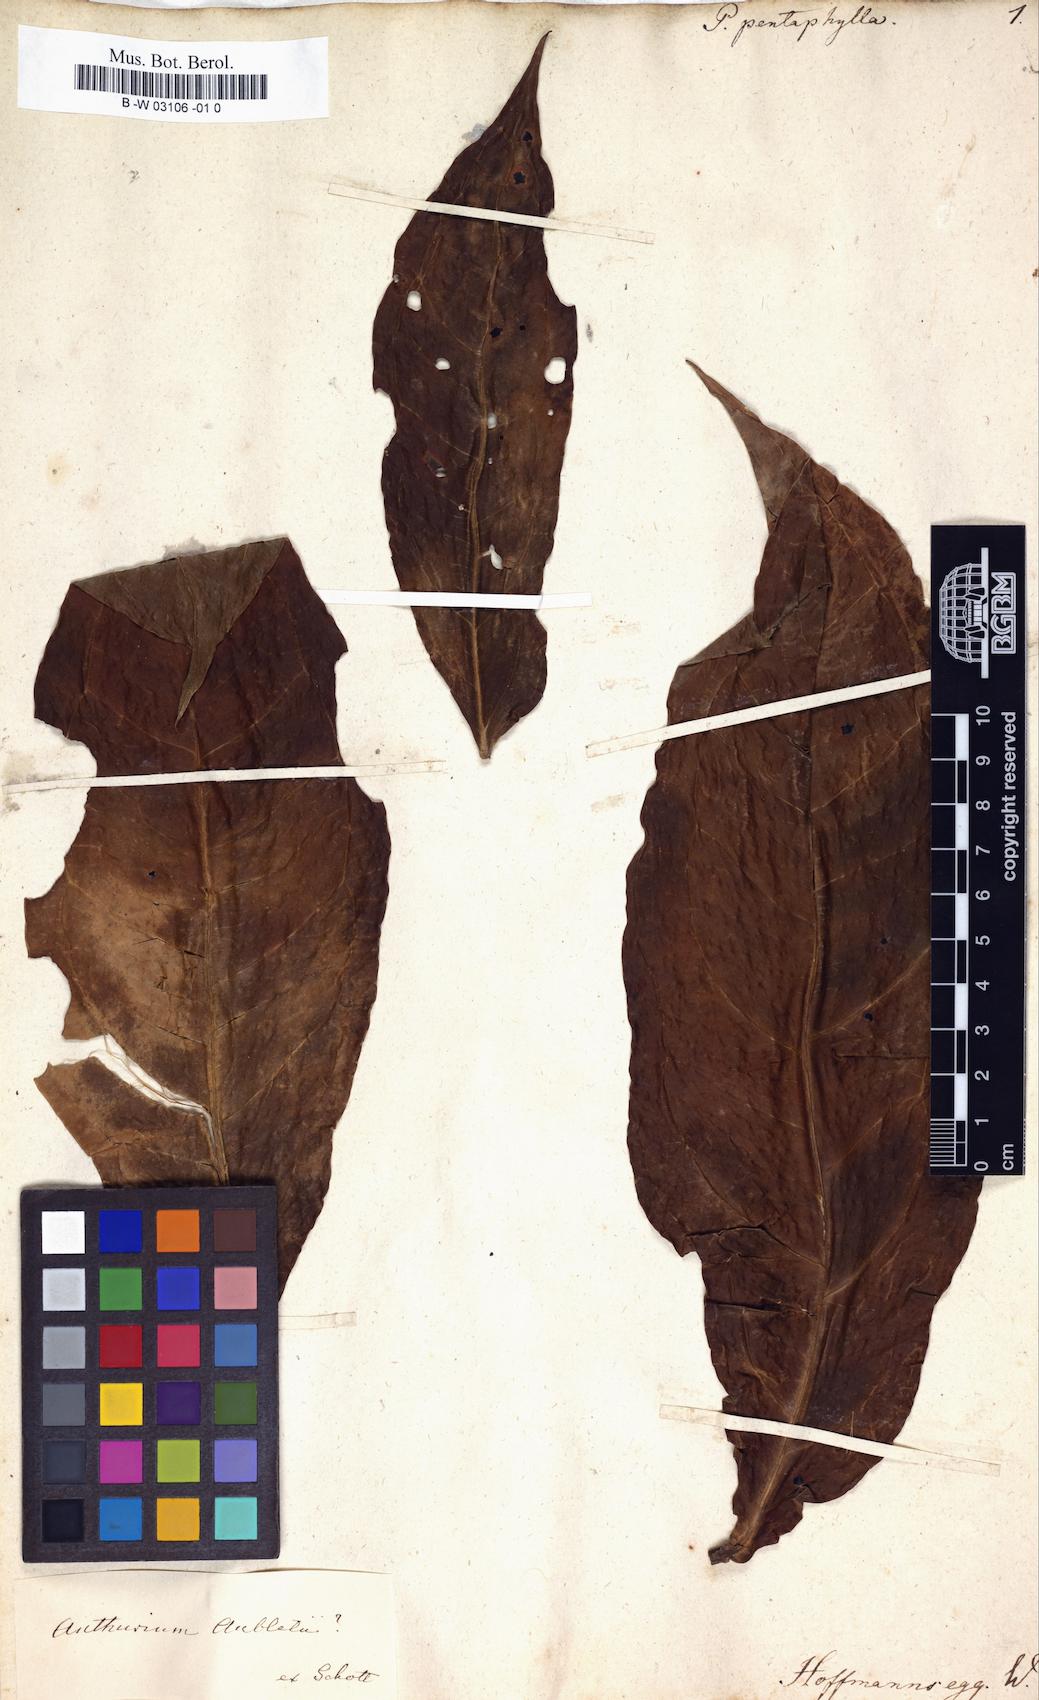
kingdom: Plantae
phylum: Tracheophyta
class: Liliopsida
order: Alismatales
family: Araceae
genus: Pothos
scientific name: Pothos pentaphylla
